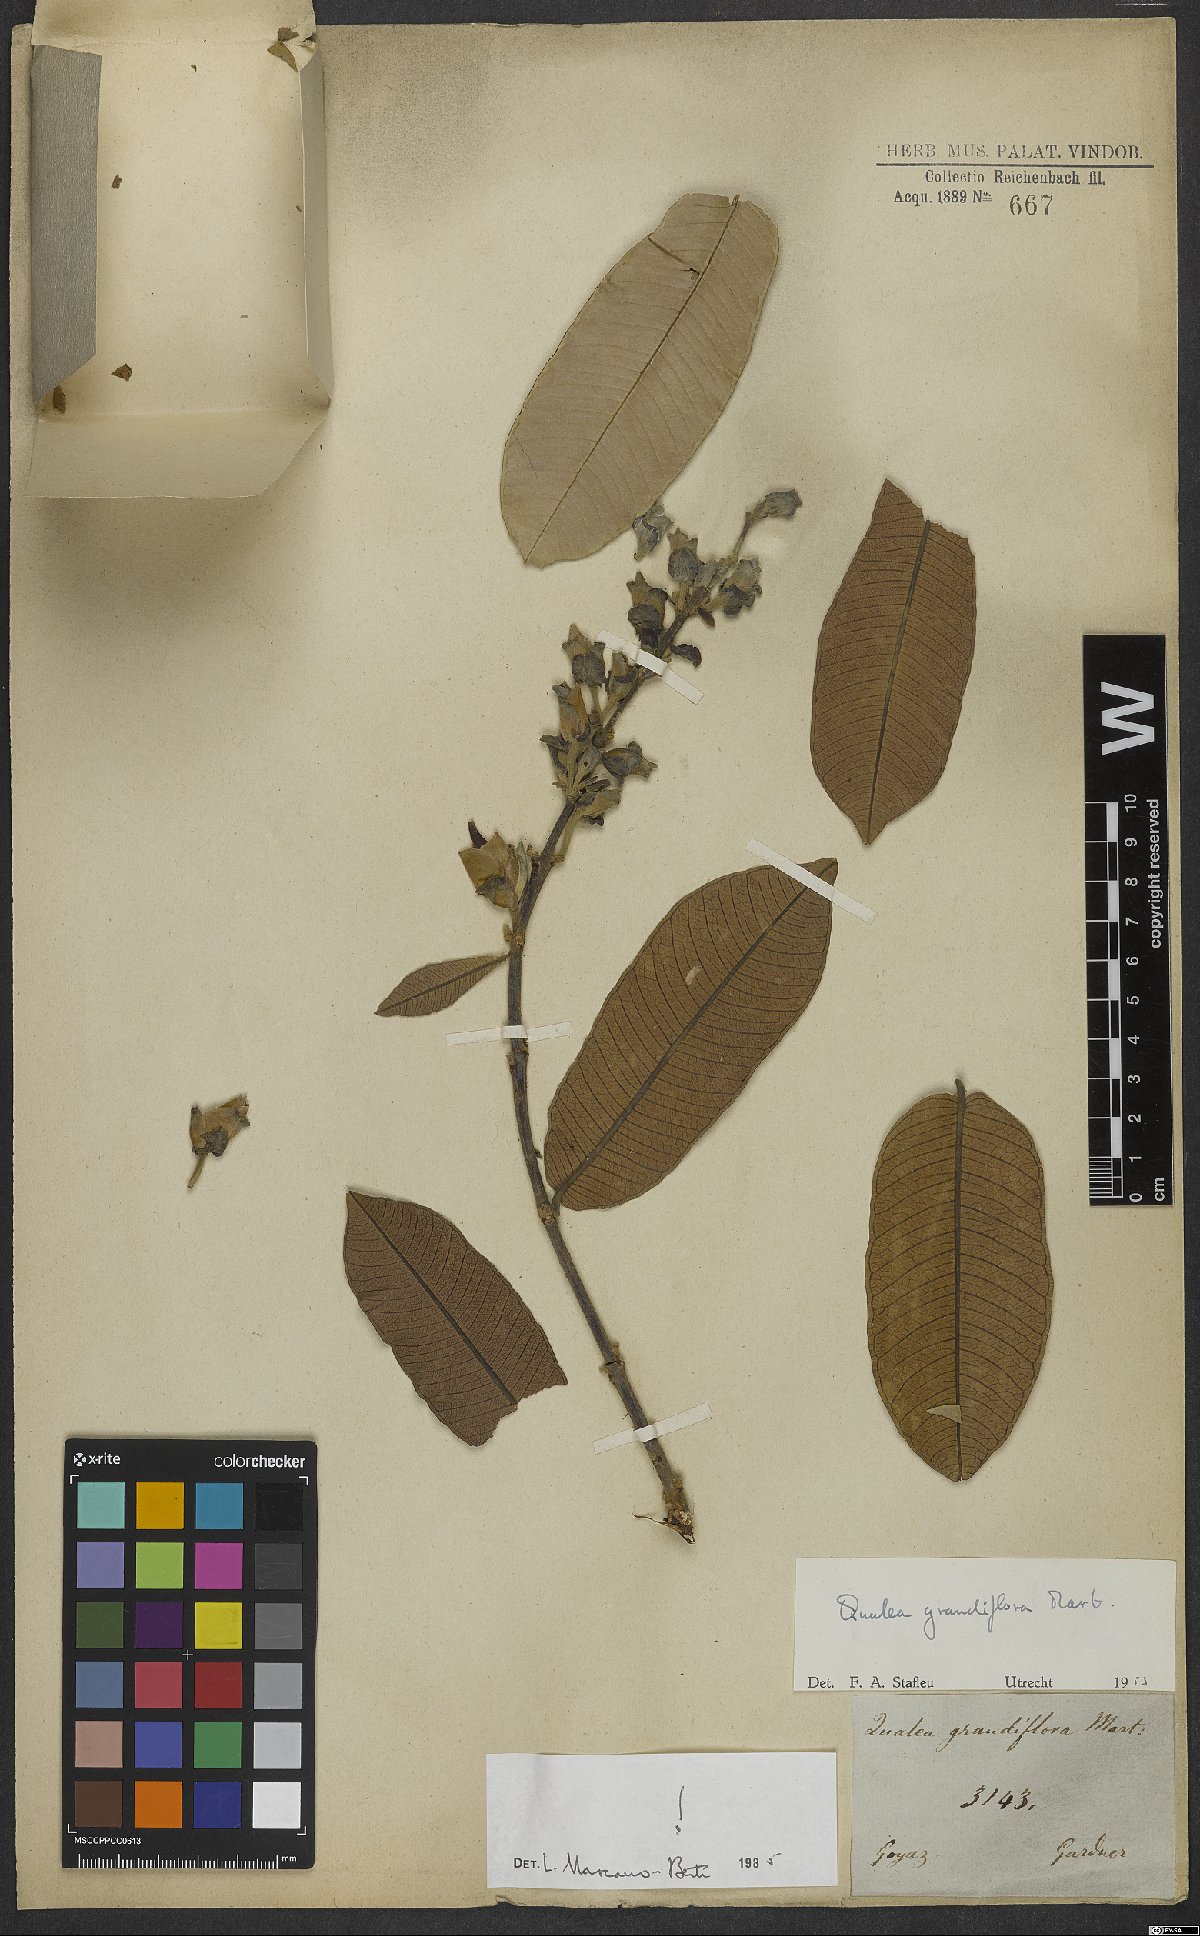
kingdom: Plantae
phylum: Tracheophyta
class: Magnoliopsida
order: Myrtales
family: Vochysiaceae
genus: Qualea
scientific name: Qualea grandiflora
